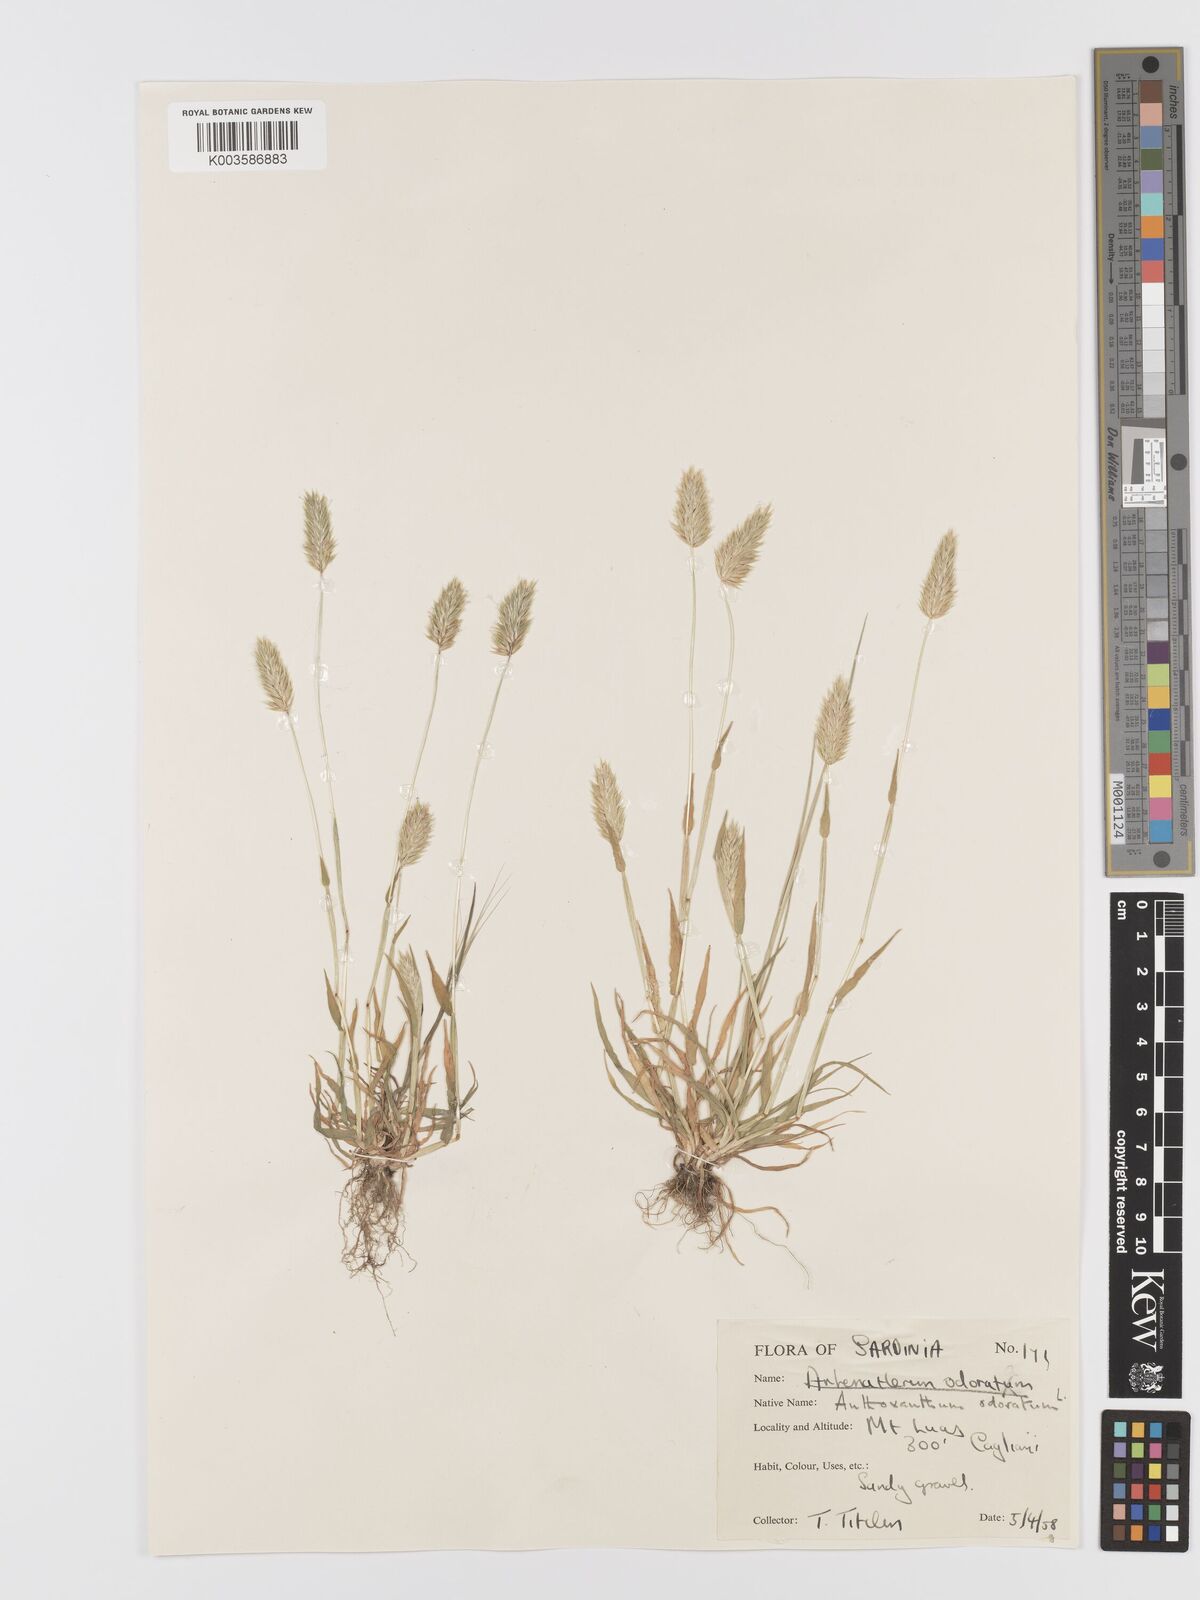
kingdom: Plantae
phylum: Tracheophyta
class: Liliopsida
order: Poales
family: Poaceae
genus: Anthoxanthum
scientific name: Anthoxanthum ovatum
